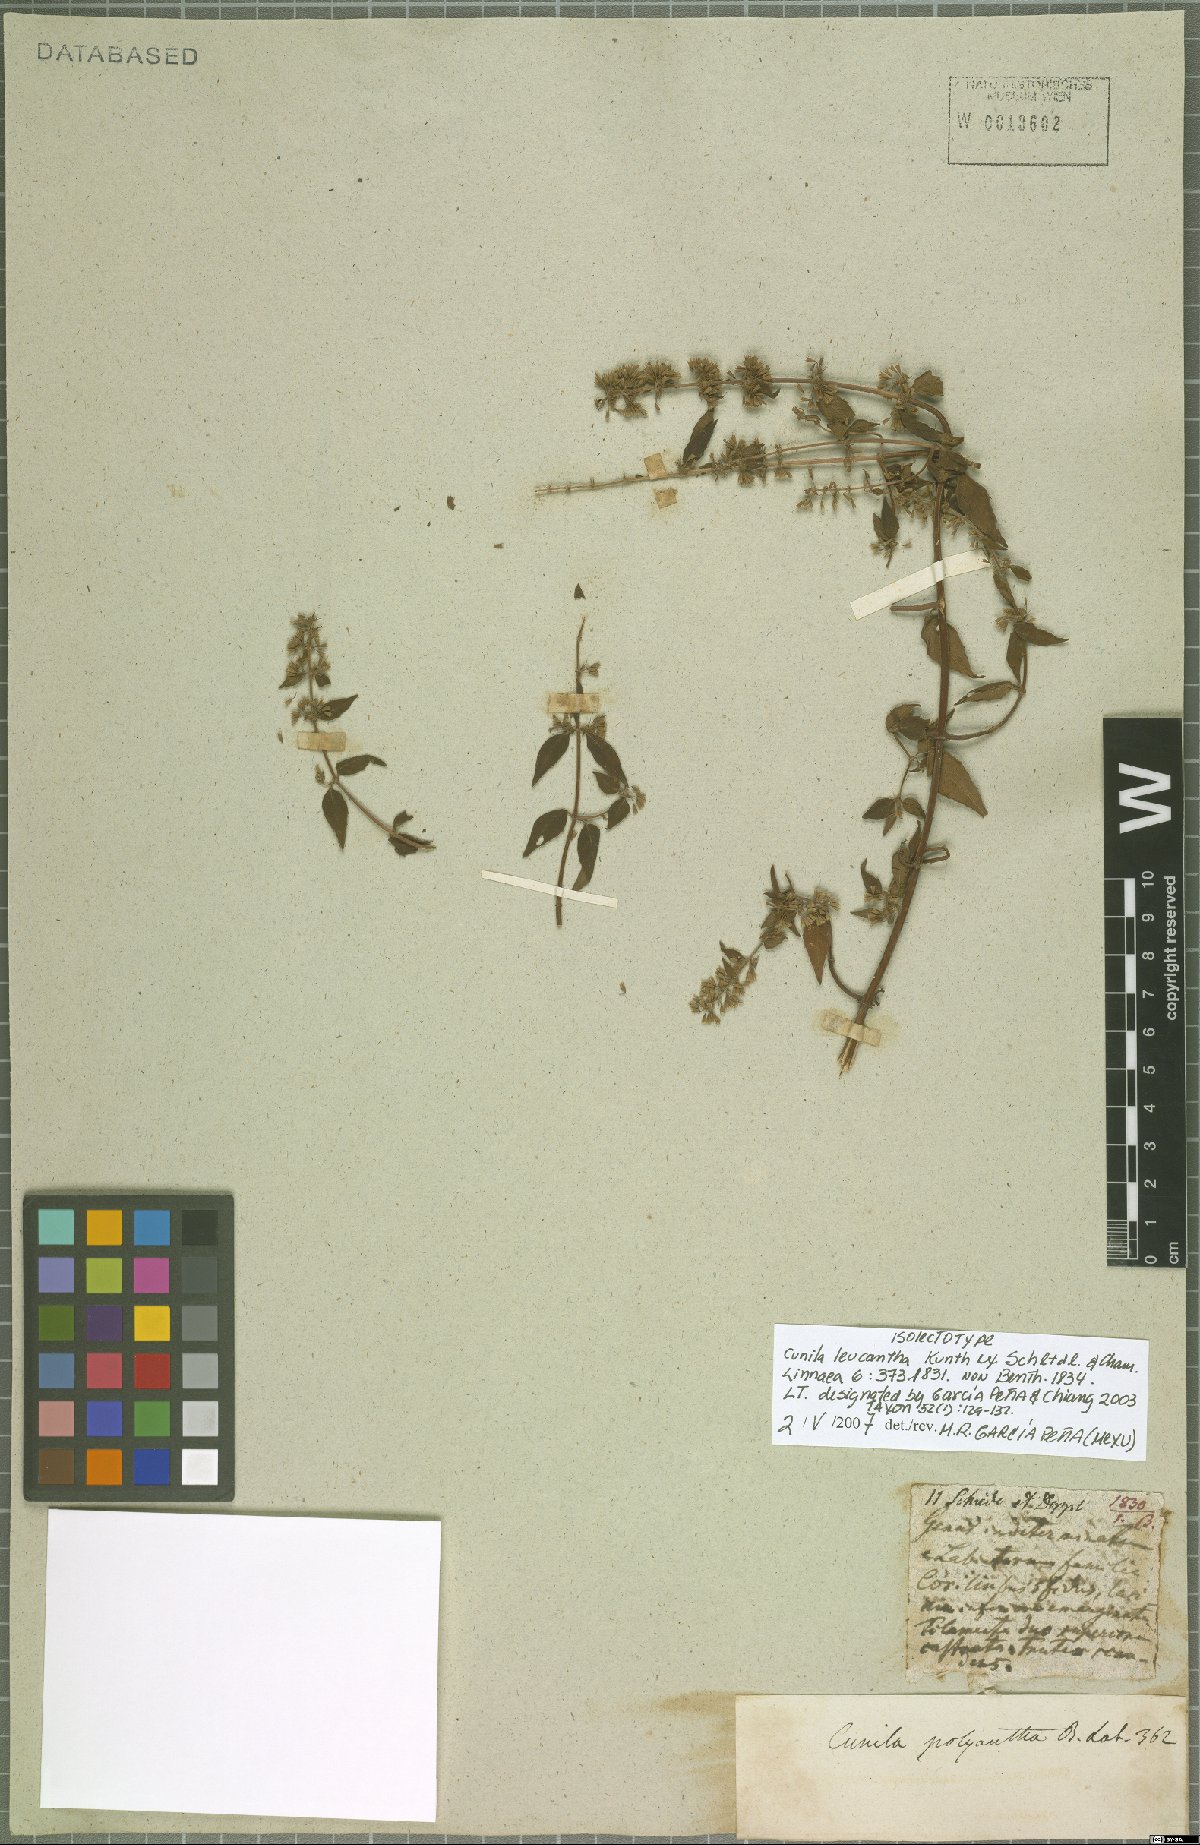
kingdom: Plantae
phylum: Tracheophyta
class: Magnoliopsida
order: Lamiales
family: Lamiaceae
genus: Cunila
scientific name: Cunila leucantha
